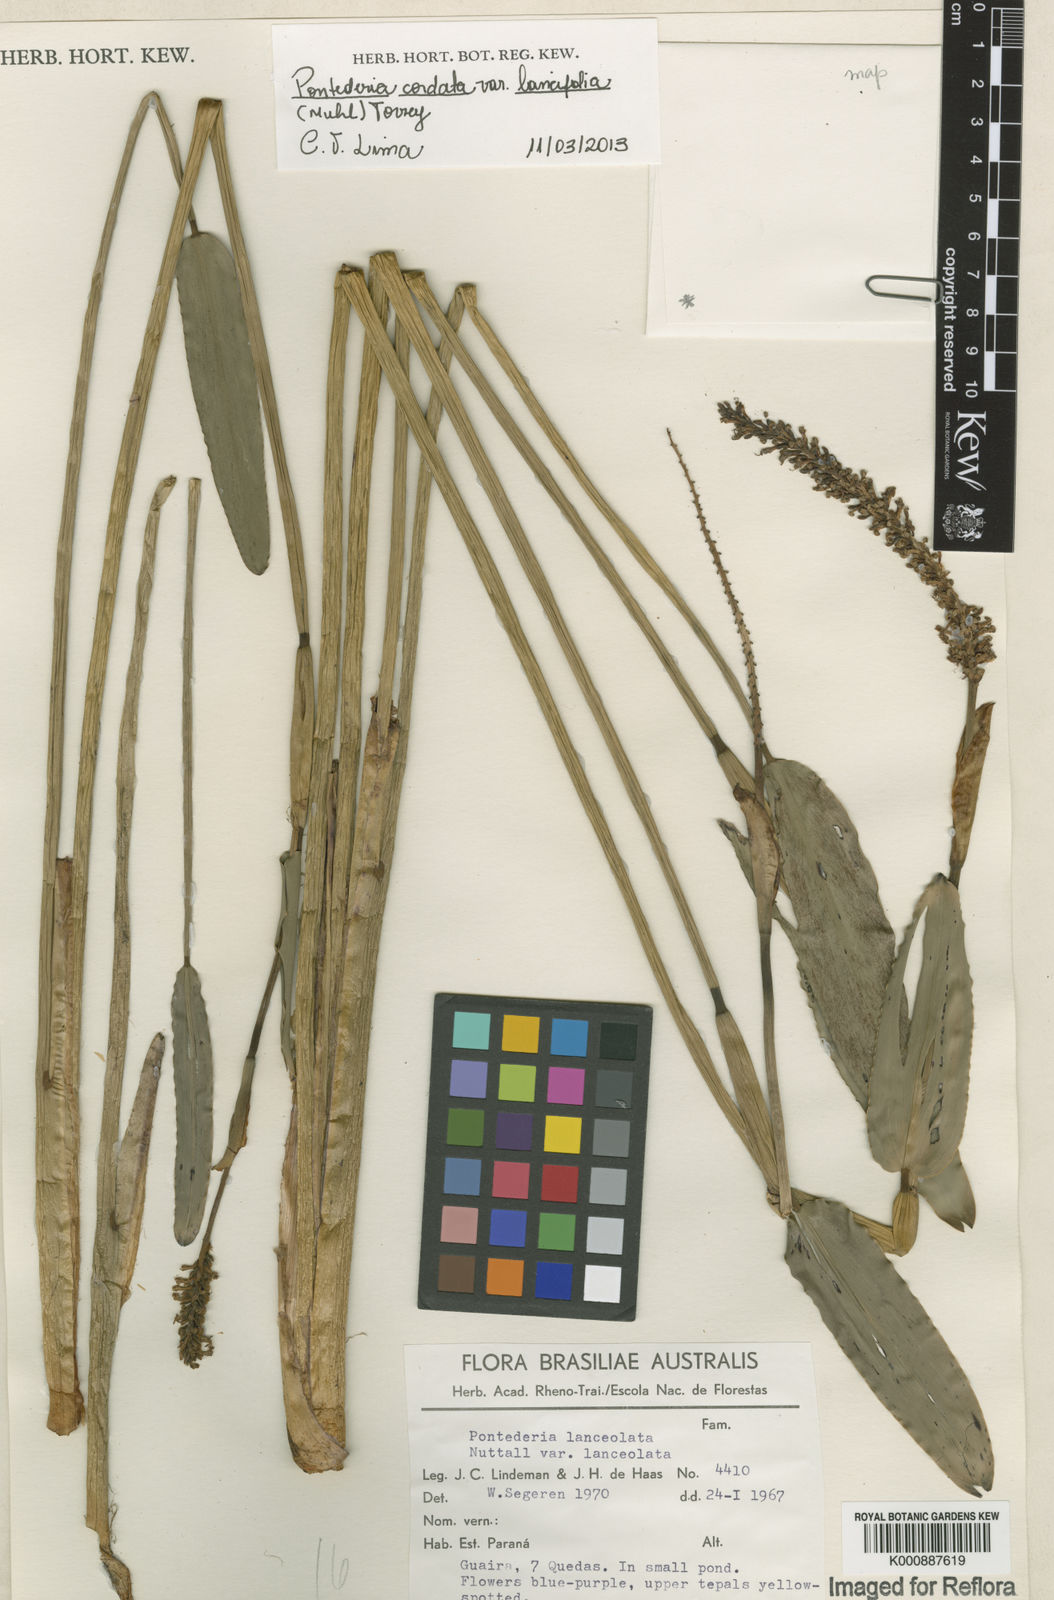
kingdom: Plantae
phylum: Tracheophyta
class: Liliopsida
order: Commelinales
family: Pontederiaceae
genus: Pontederia
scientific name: Pontederia cordata
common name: Pickerelweed
